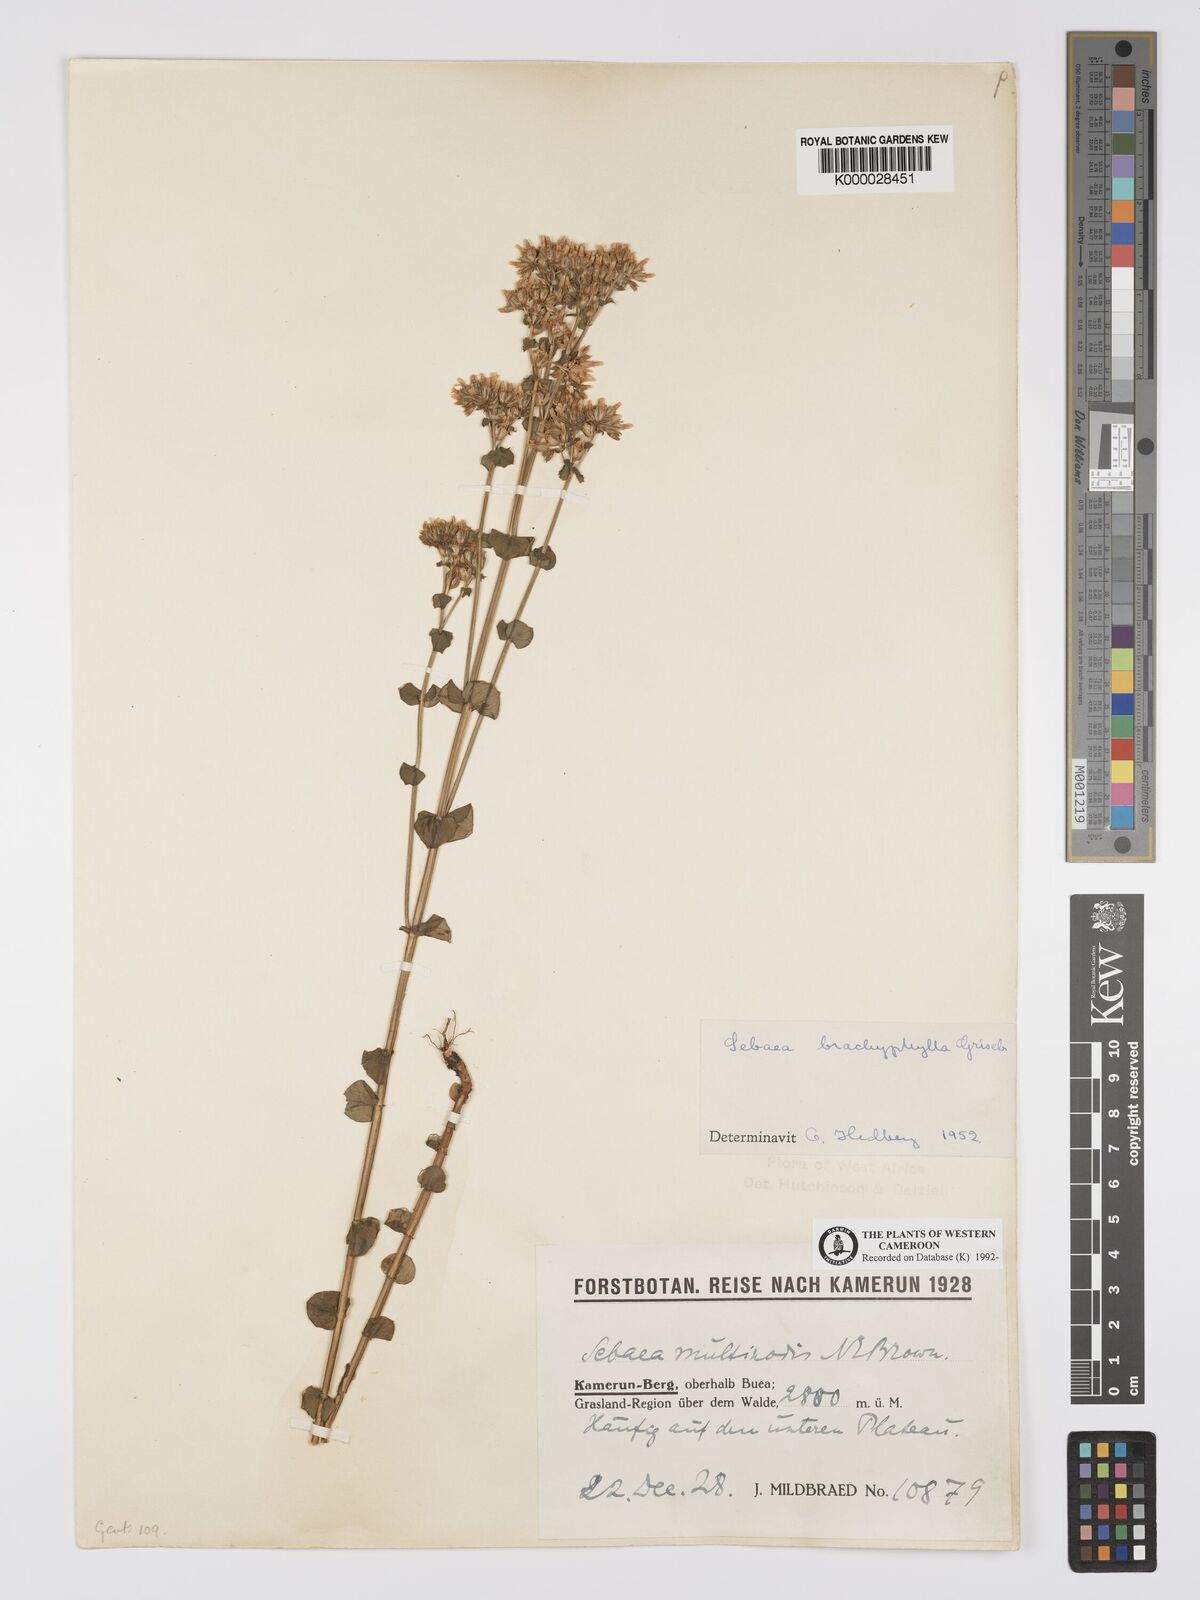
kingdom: Plantae
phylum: Tracheophyta
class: Magnoliopsida
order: Gentianales
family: Gentianaceae
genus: Sebaea
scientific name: Sebaea brachyphylla
